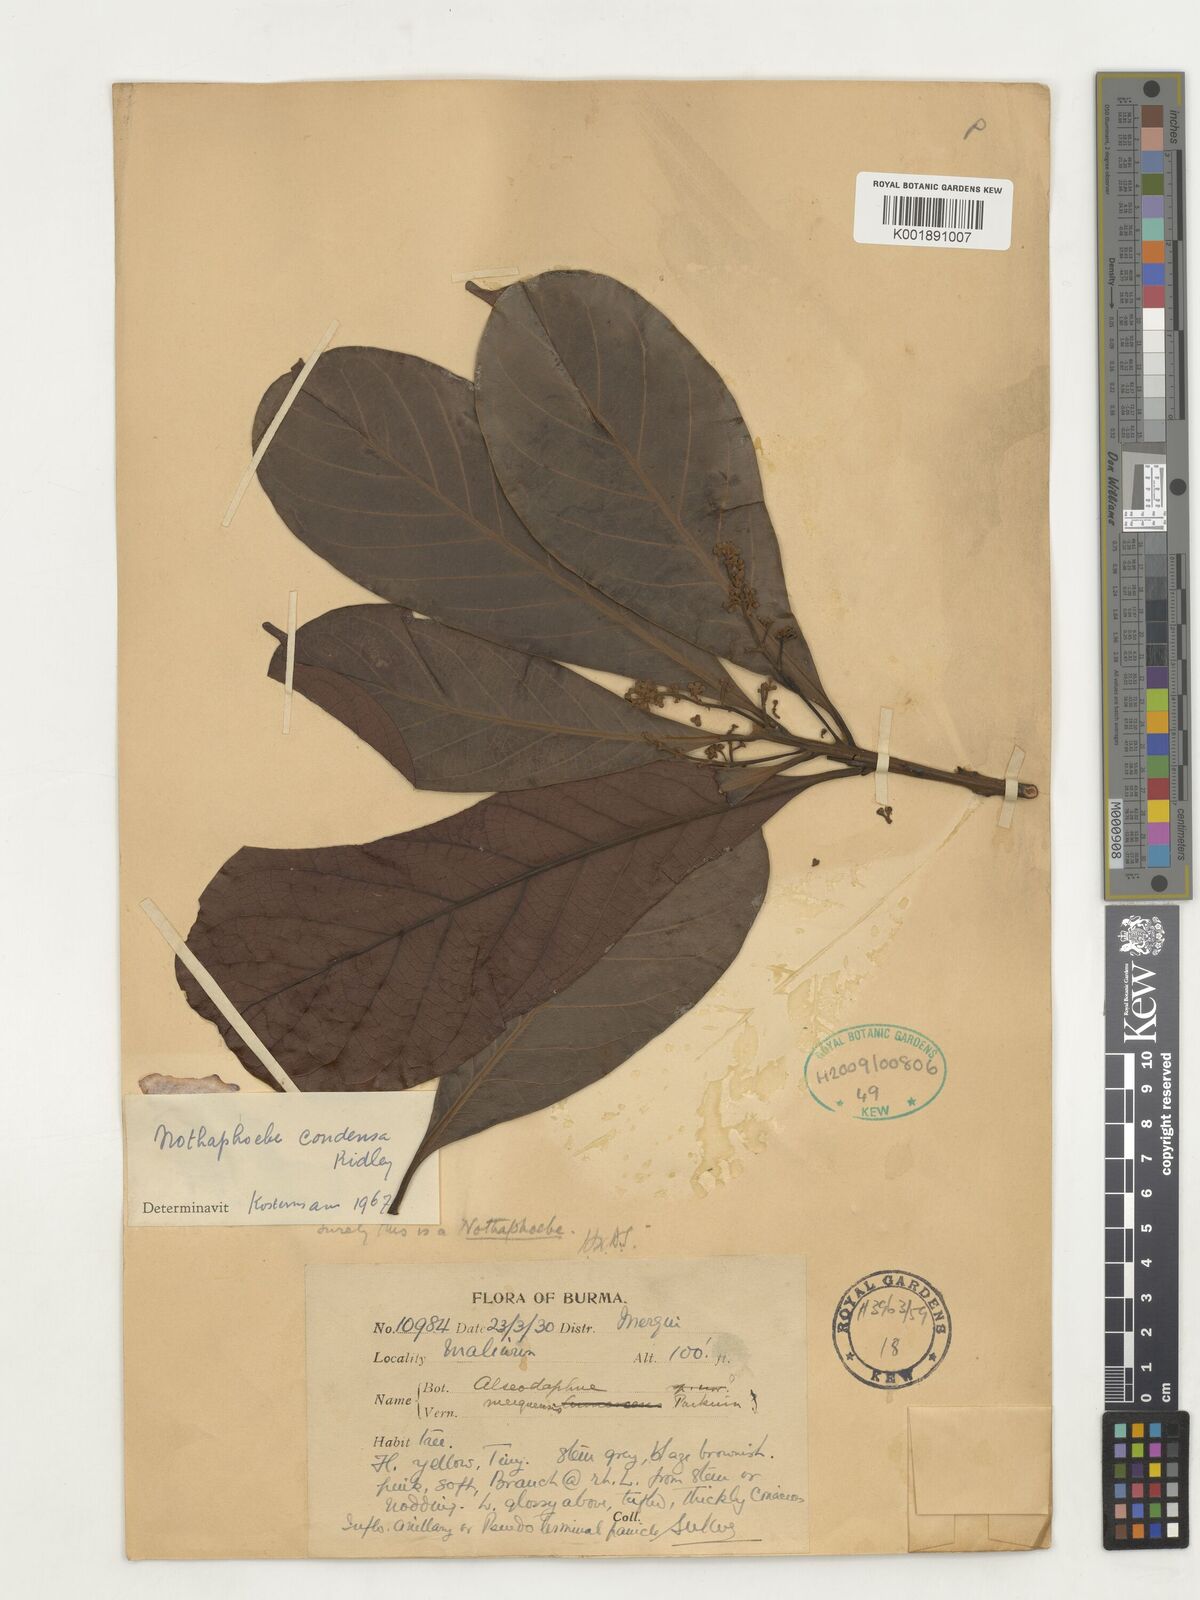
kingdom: Plantae
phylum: Tracheophyta
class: Magnoliopsida
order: Laurales
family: Lauraceae
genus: Nothaphoebe
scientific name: Nothaphoebe condensa
